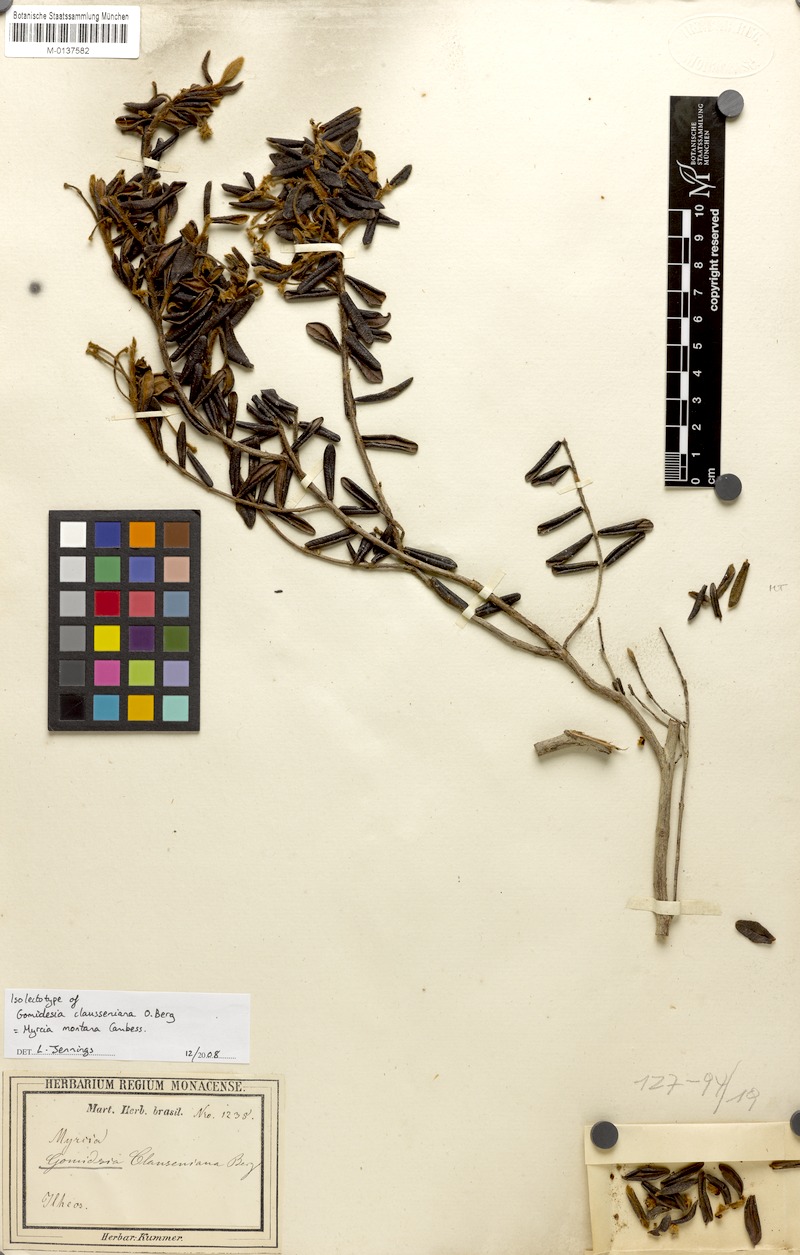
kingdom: Plantae
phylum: Tracheophyta
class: Magnoliopsida
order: Myrtales
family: Myrtaceae
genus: Myrcia
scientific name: Myrcia ouropretoensis
